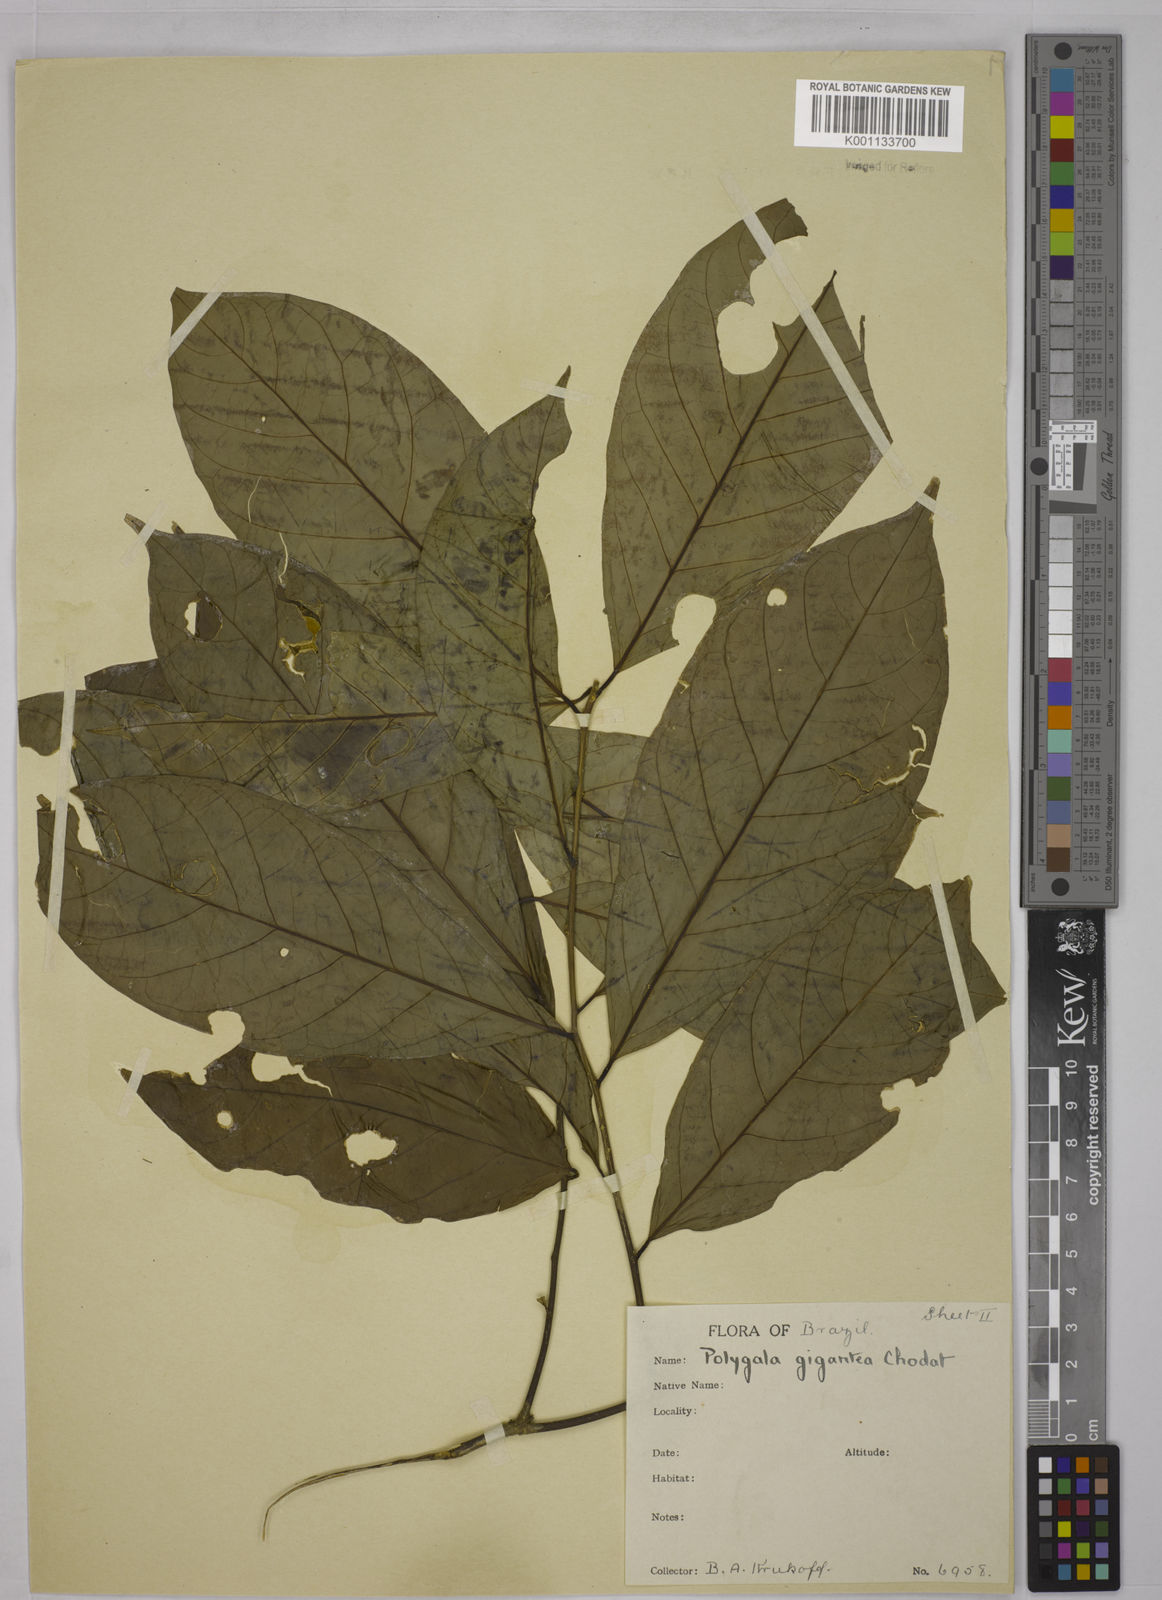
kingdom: Plantae
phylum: Tracheophyta
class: Magnoliopsida
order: Fabales
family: Polygalaceae
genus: Caamembeca
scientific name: Caamembeca gigantea
